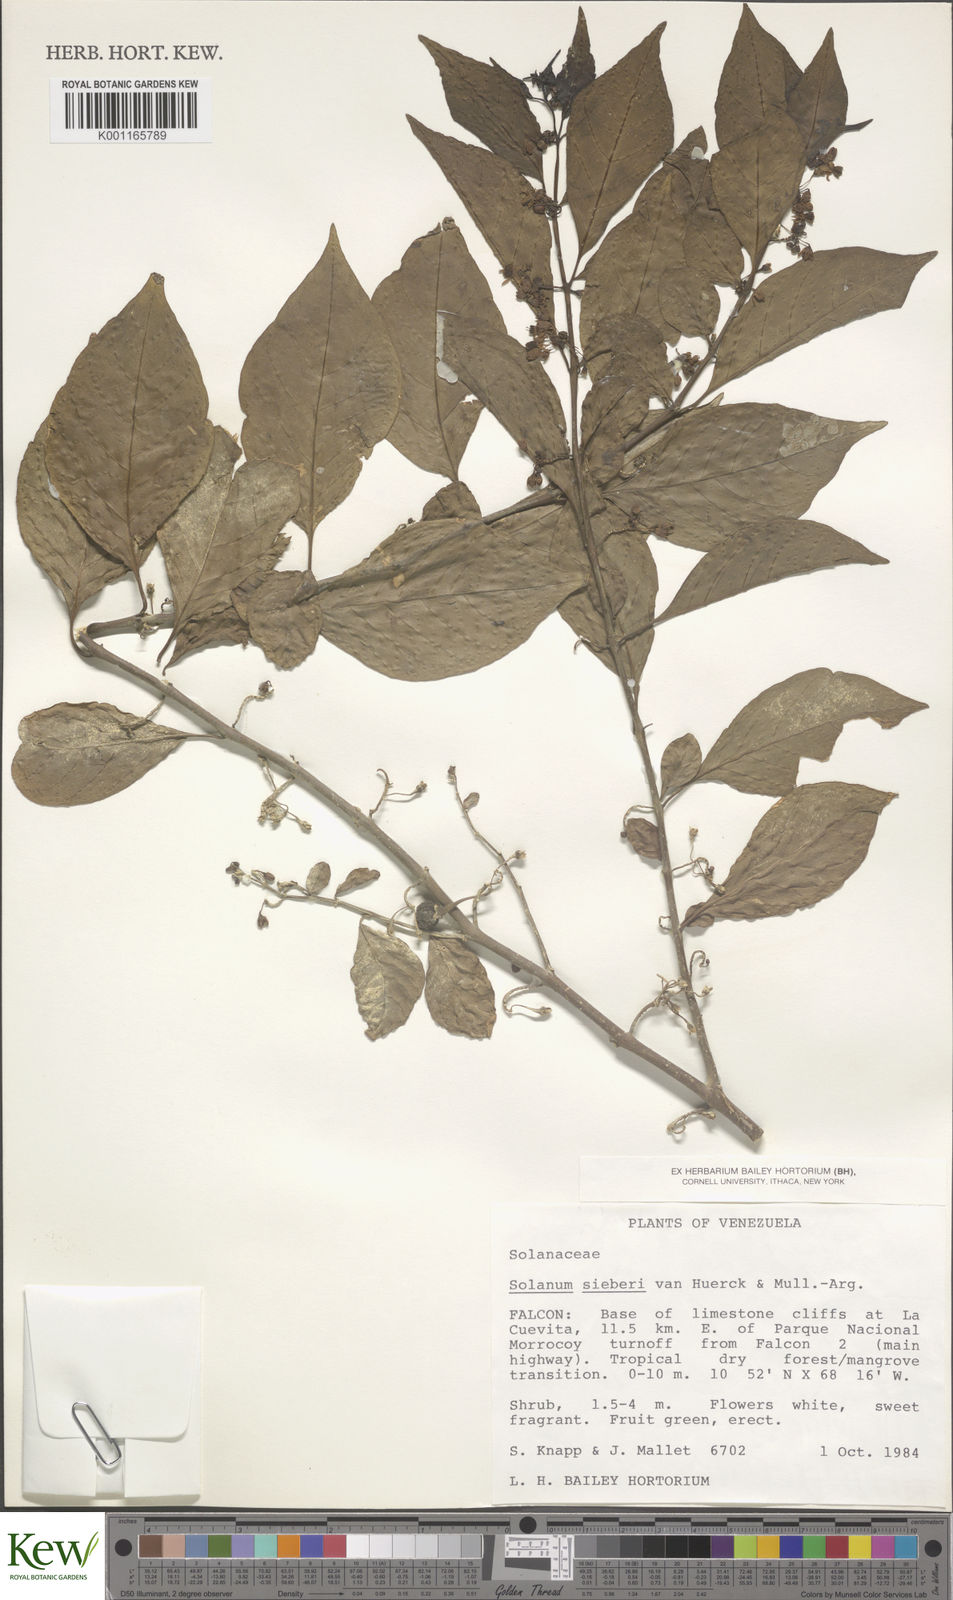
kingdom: Plantae
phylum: Tracheophyta
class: Magnoliopsida
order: Solanales
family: Solanaceae
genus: Solanum
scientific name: Solanum sieberi
